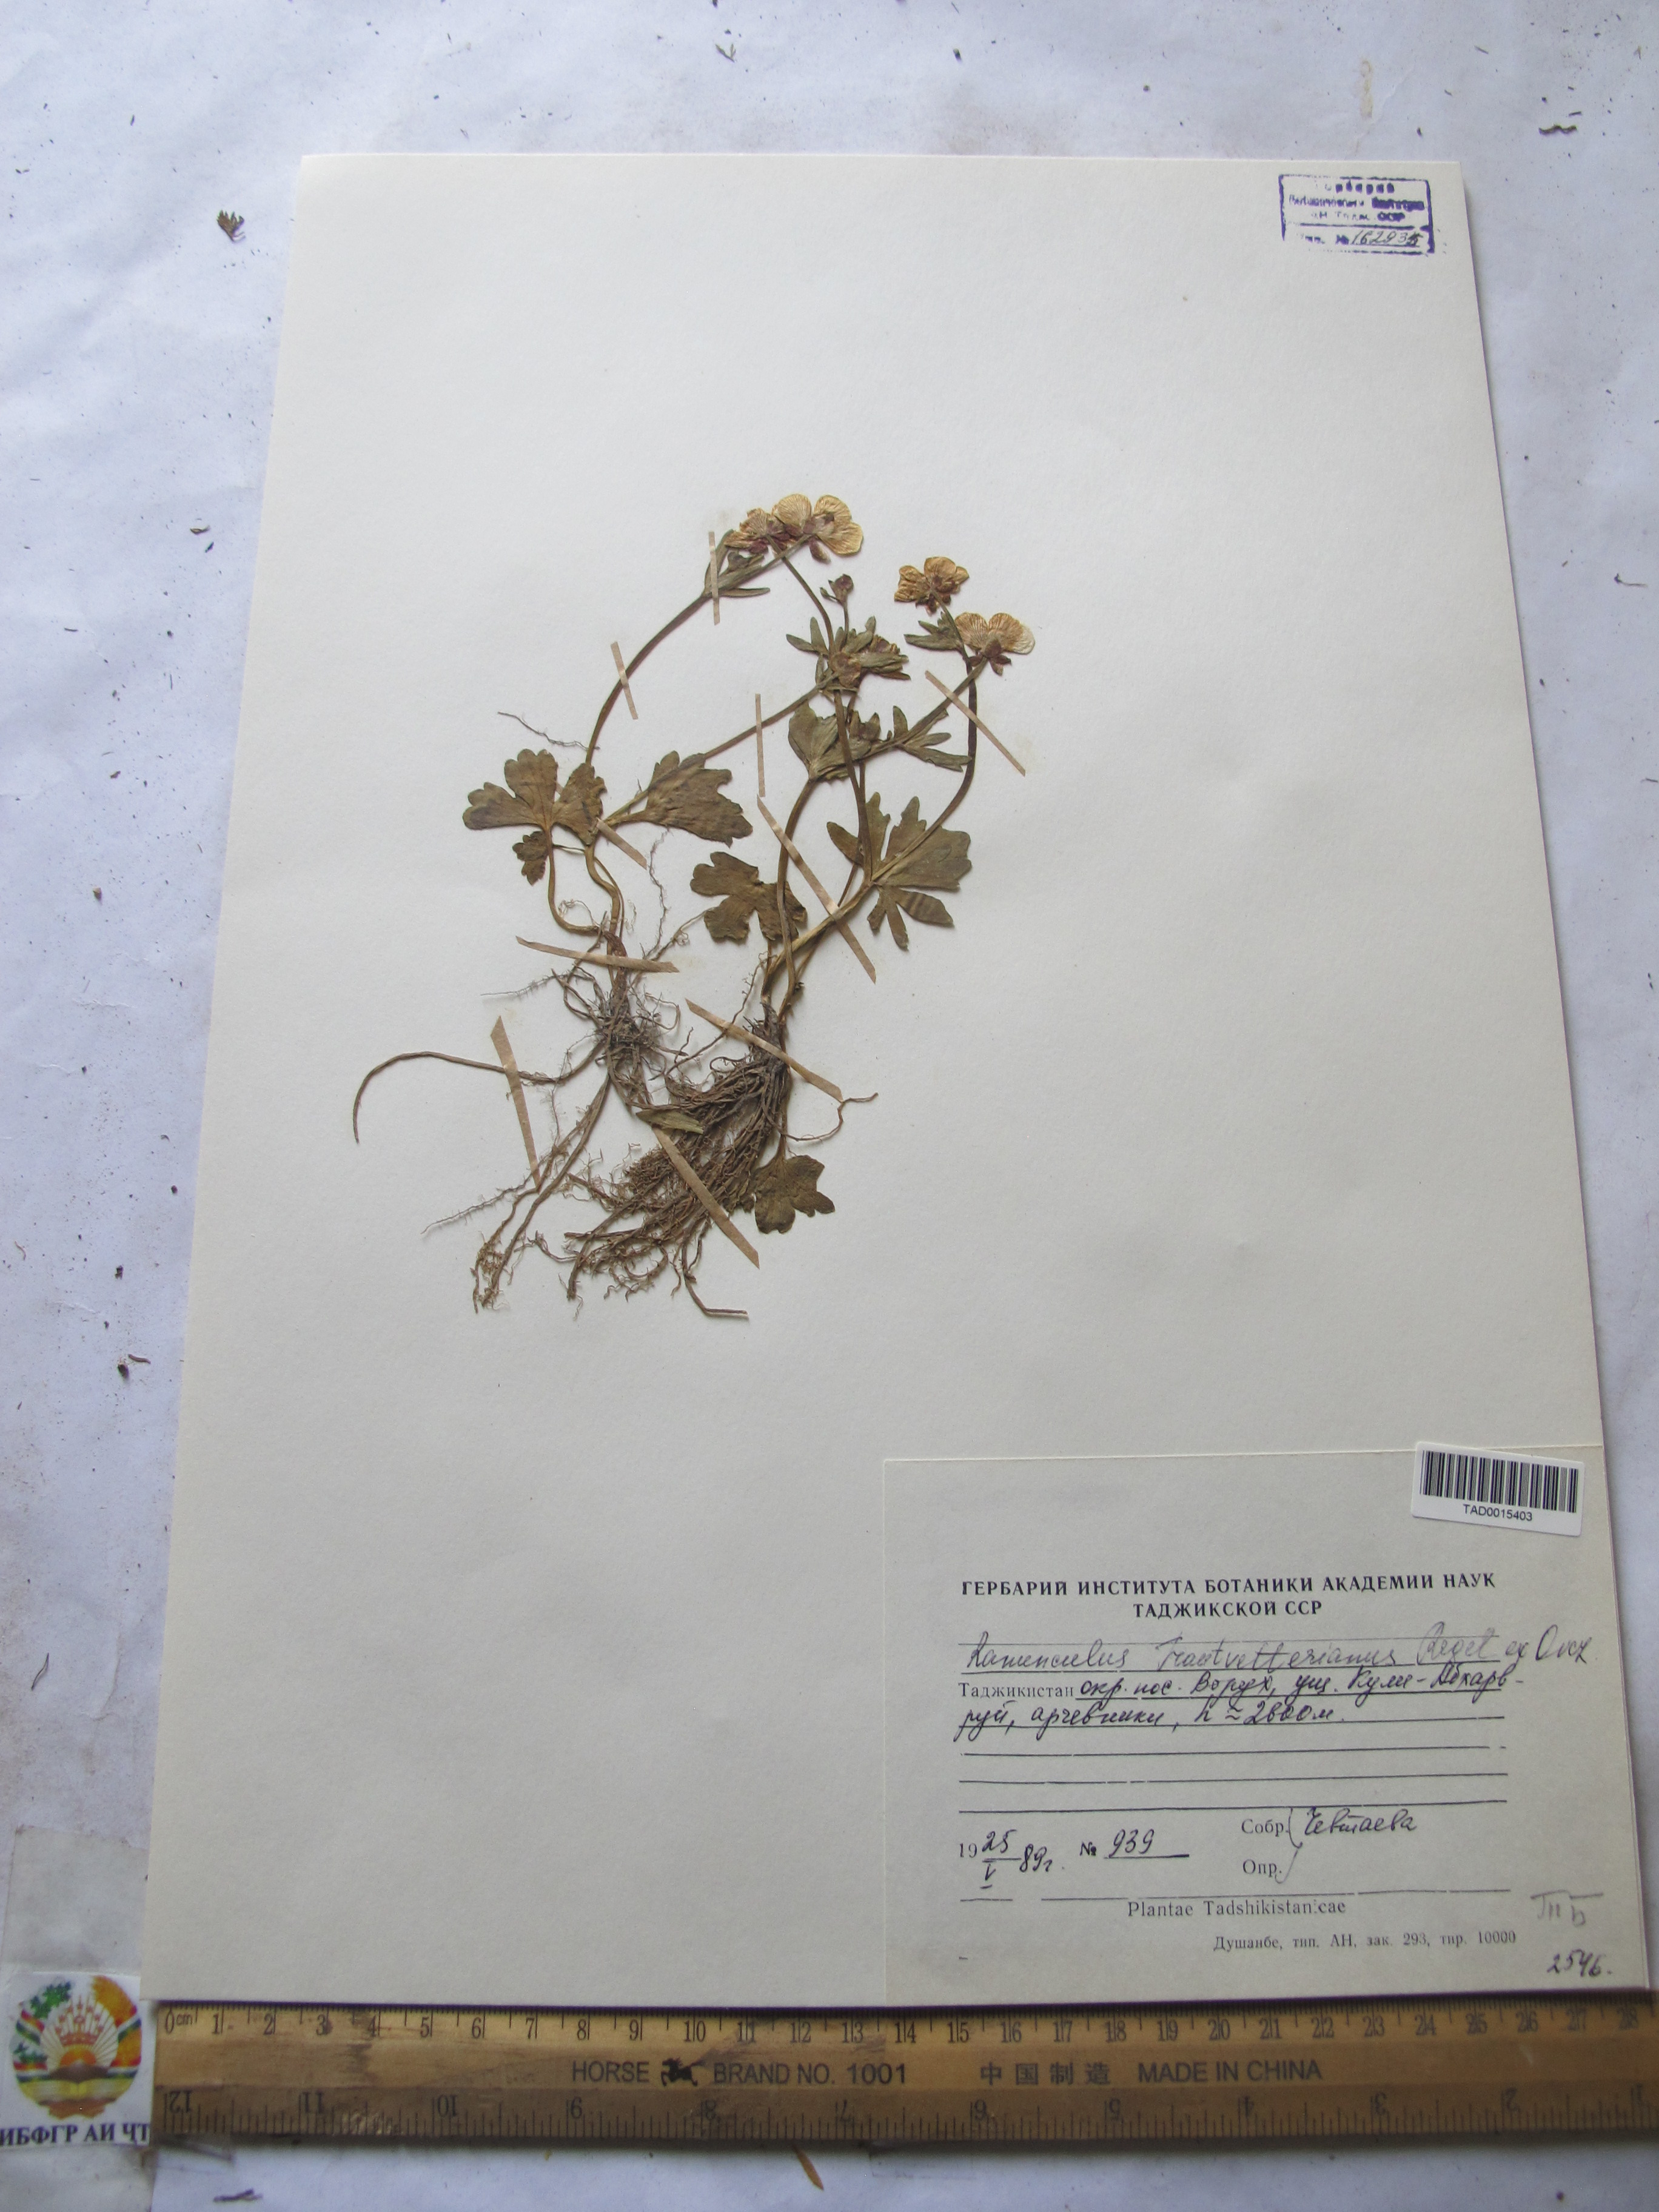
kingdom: Plantae
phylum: Tracheophyta
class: Magnoliopsida
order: Ranunculales
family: Ranunculaceae
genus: Ranunculus
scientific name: Ranunculus songaricus
